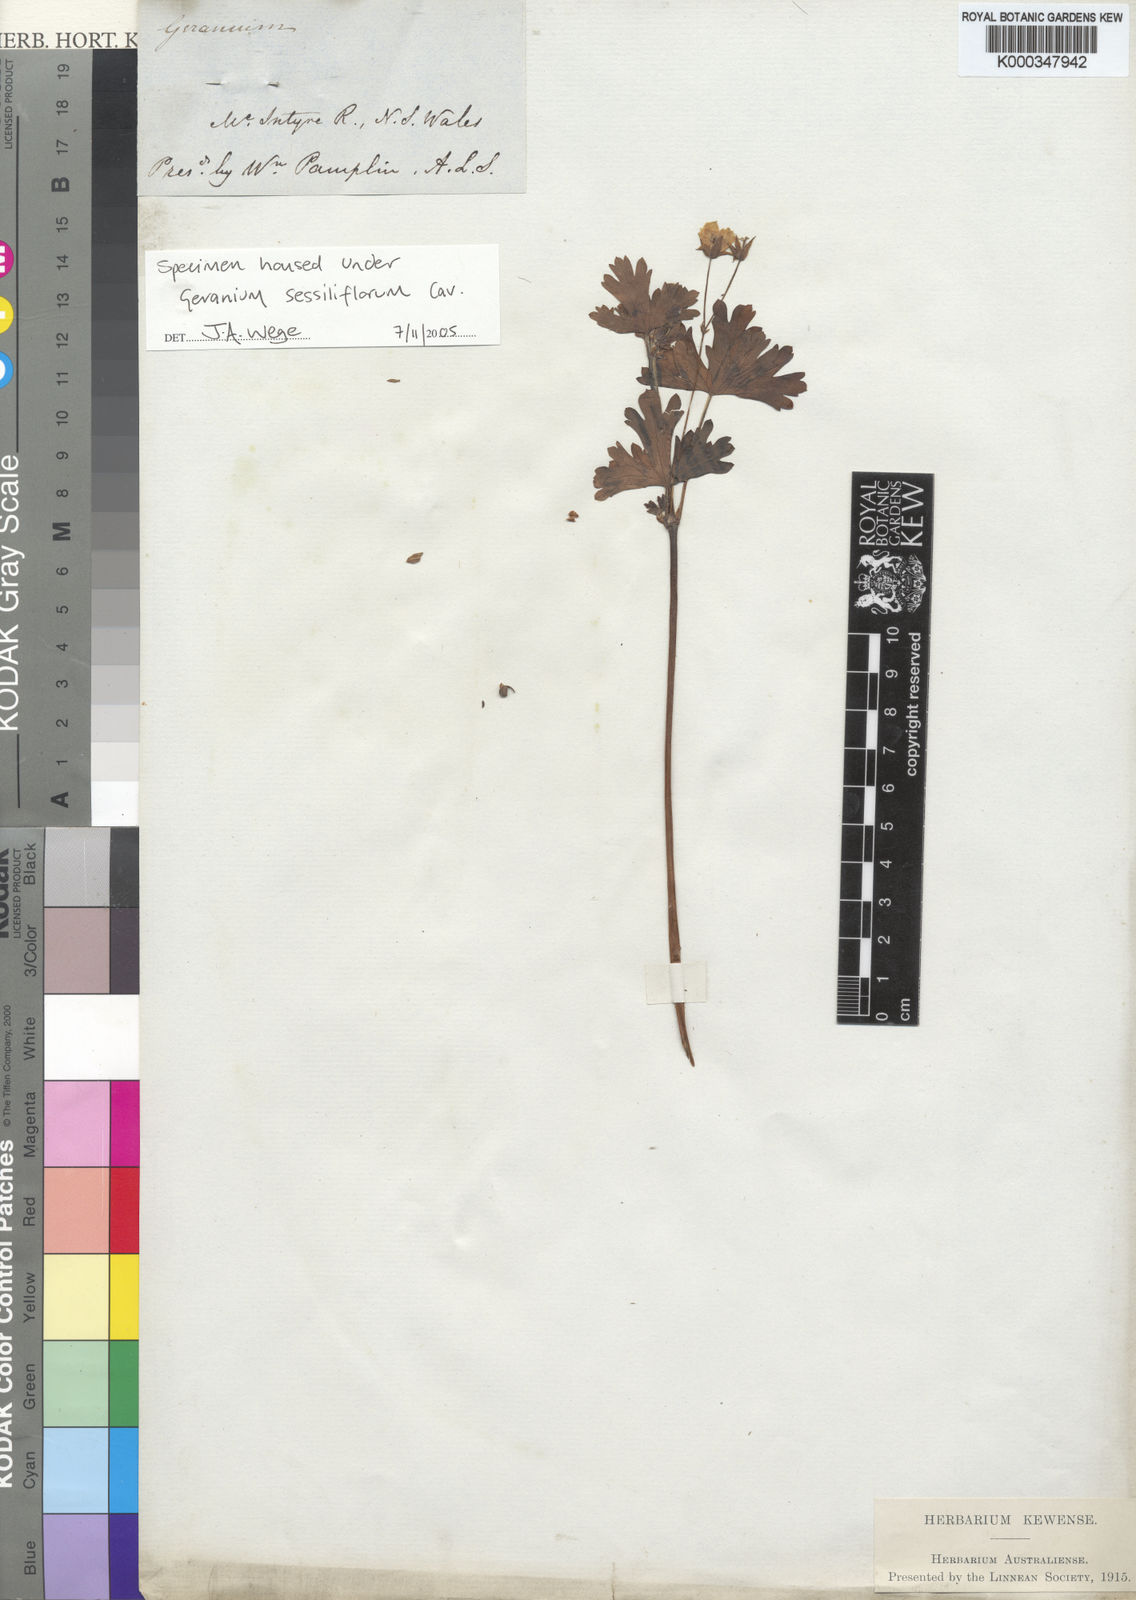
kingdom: Plantae
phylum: Tracheophyta
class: Magnoliopsida
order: Geraniales
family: Geraniaceae
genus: Geranium
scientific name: Geranium sessiliflorum
